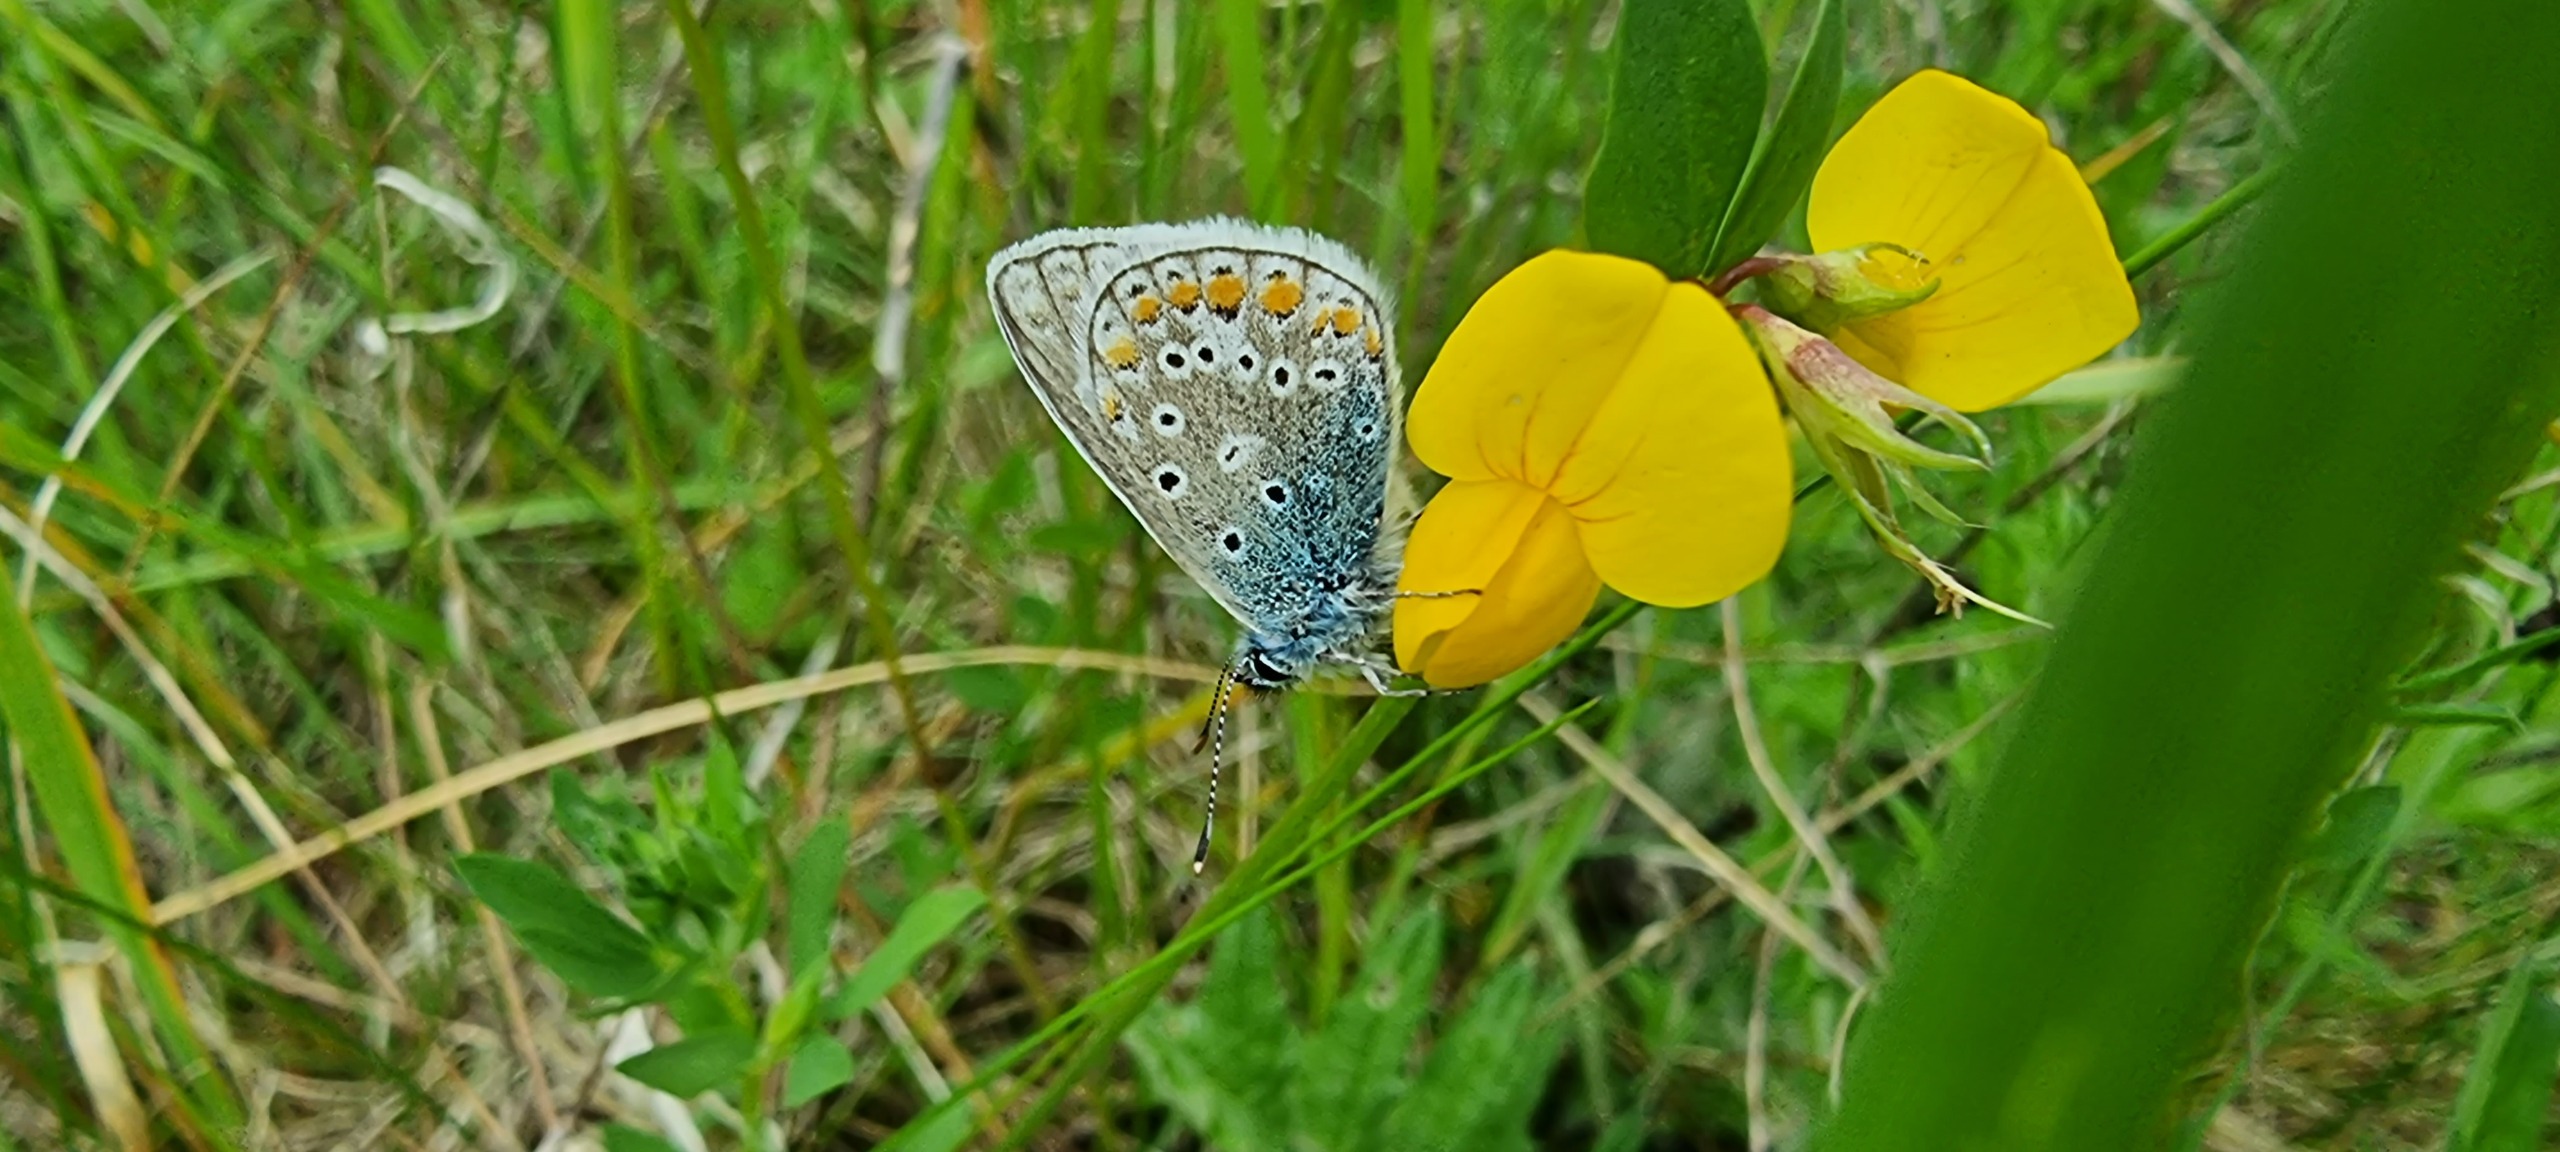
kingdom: Animalia
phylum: Arthropoda
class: Insecta
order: Lepidoptera
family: Lycaenidae
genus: Polyommatus
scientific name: Polyommatus icarus
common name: Almindelig blåfugl
